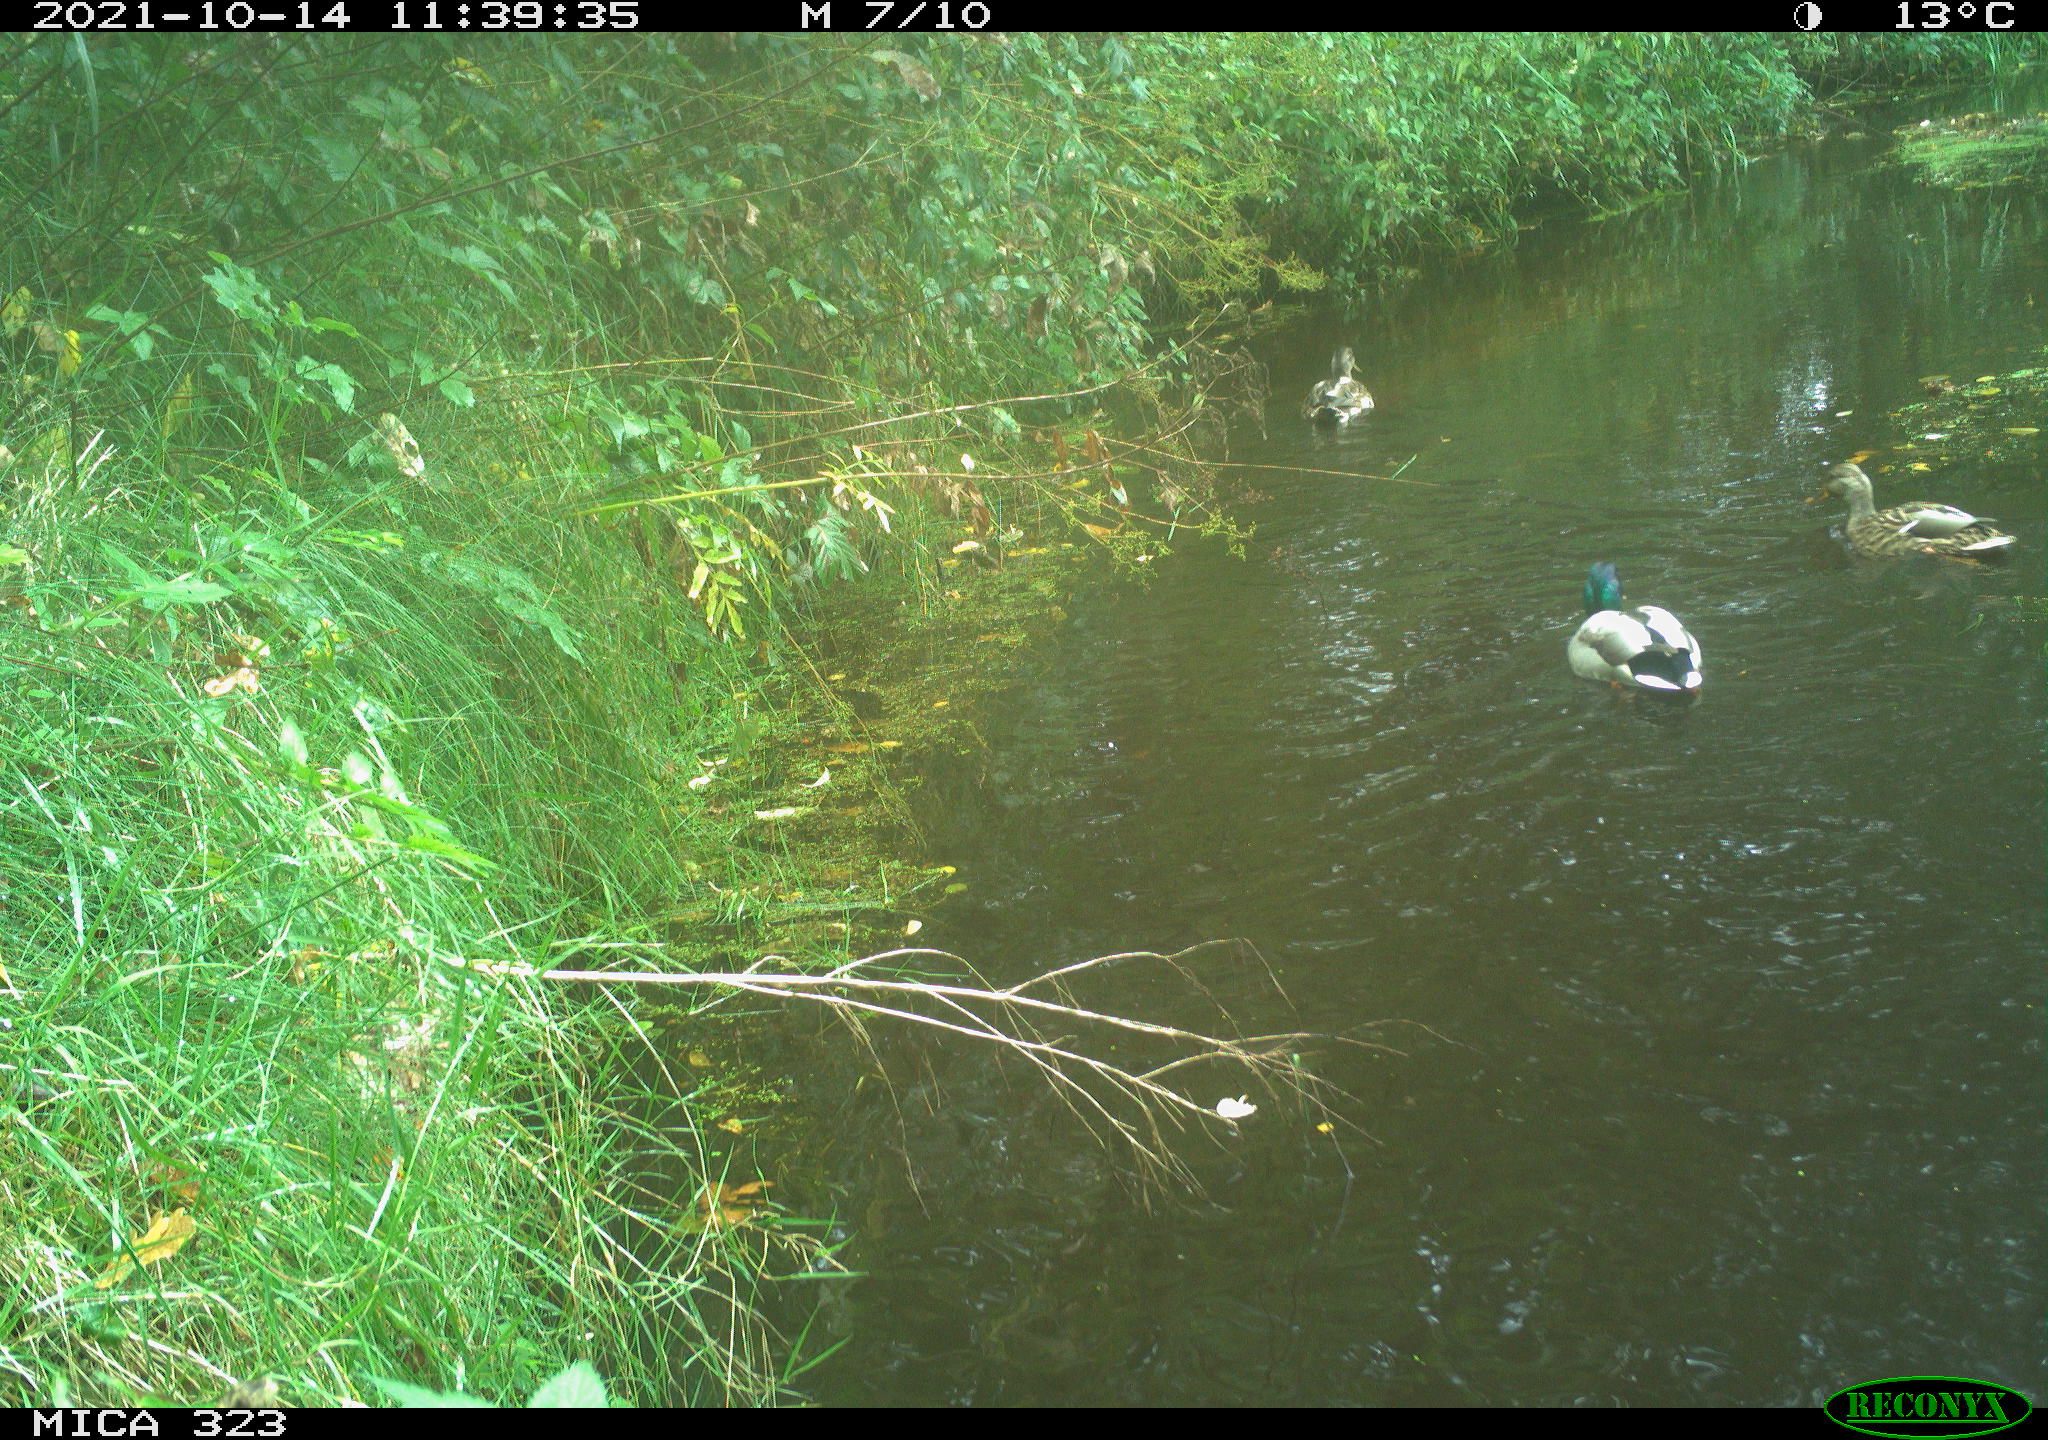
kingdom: Animalia
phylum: Chordata
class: Aves
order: Anseriformes
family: Anatidae
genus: Anas
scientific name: Anas platyrhynchos
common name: Mallard
